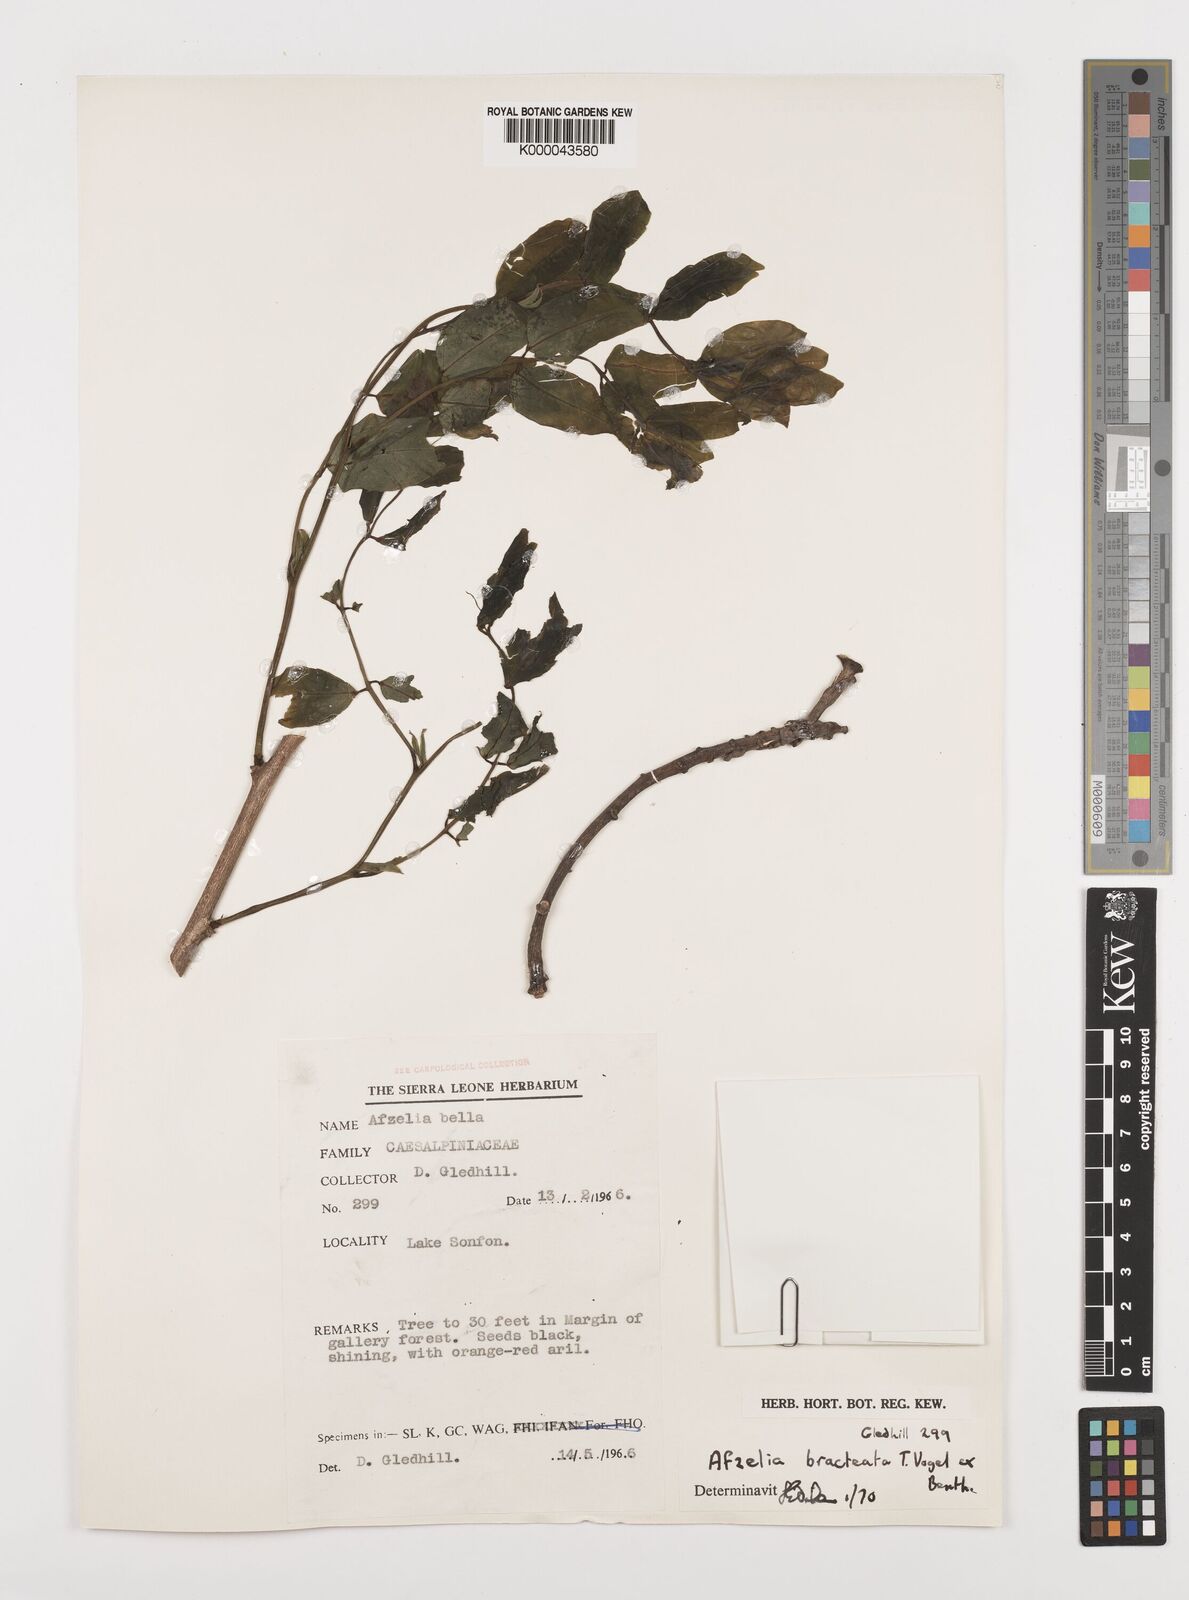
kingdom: Plantae
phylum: Tracheophyta
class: Magnoliopsida
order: Fabales
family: Fabaceae
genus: Afzelia
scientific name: Afzelia
